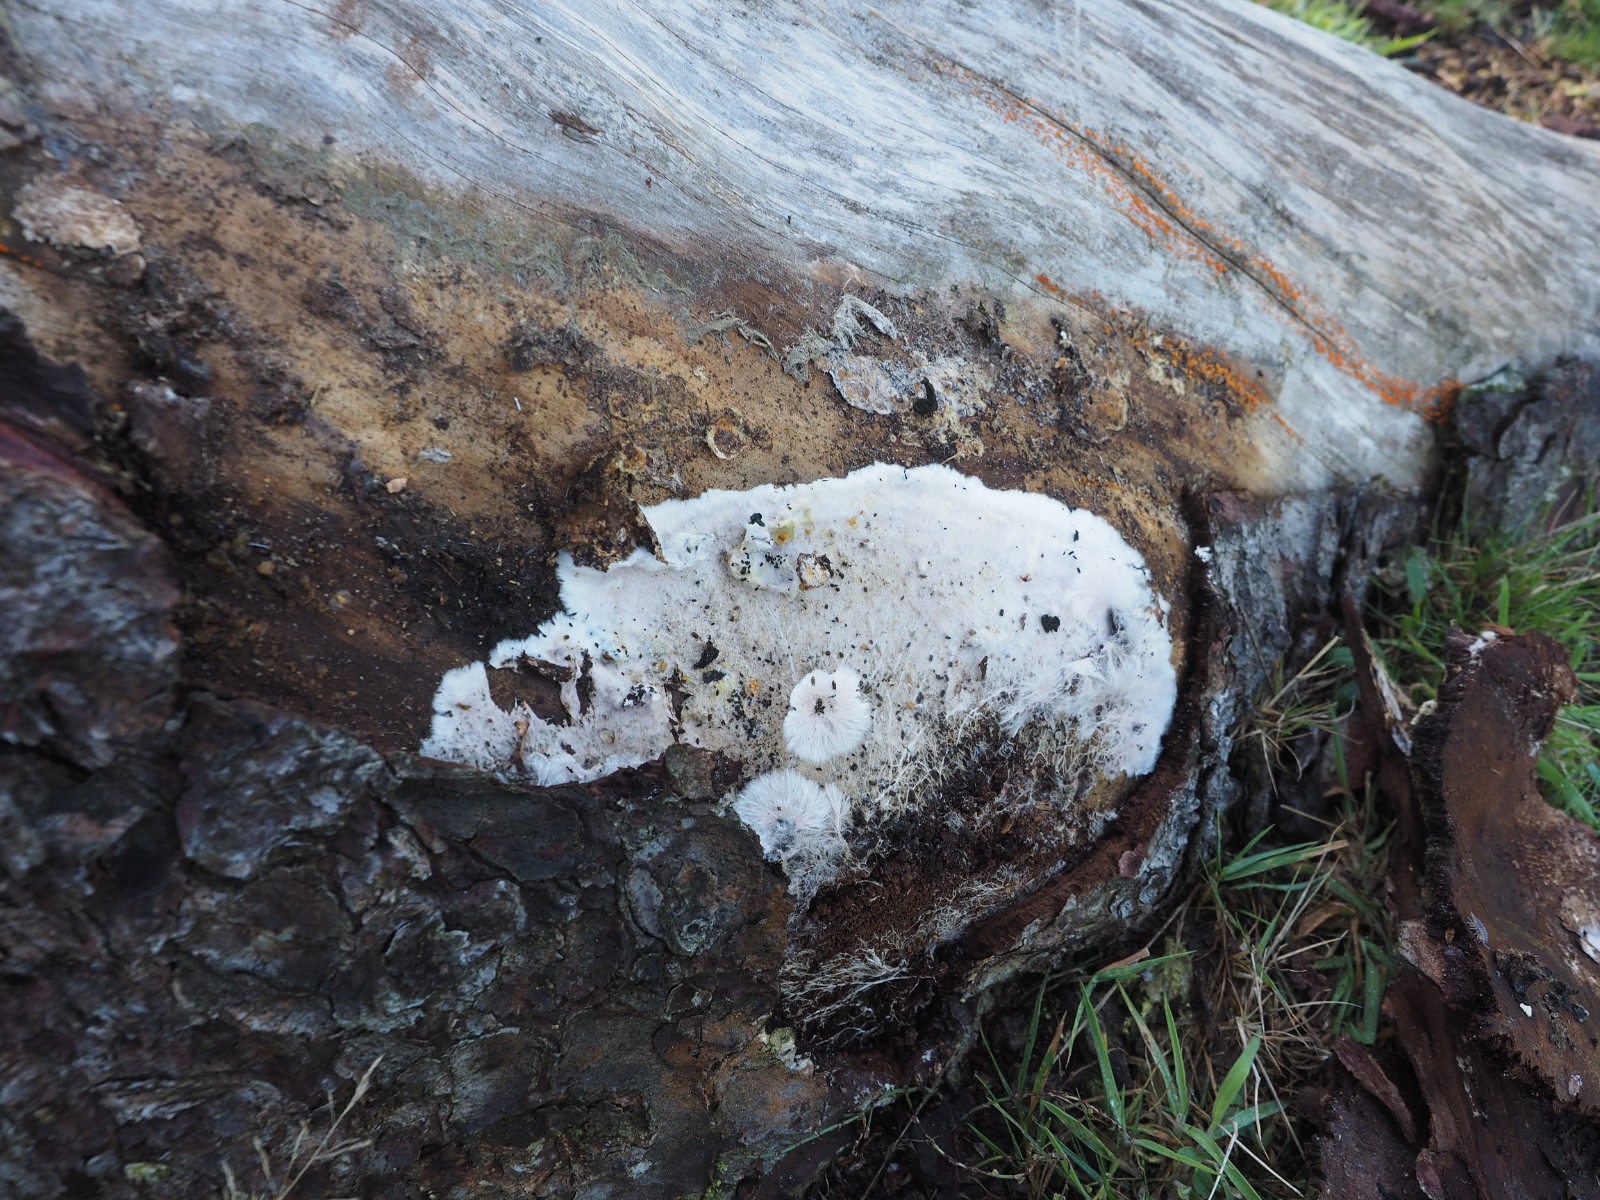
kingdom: Fungi
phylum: Basidiomycota
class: Agaricomycetes
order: Corticiales
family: Corticiaceae
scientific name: Corticiaceae
